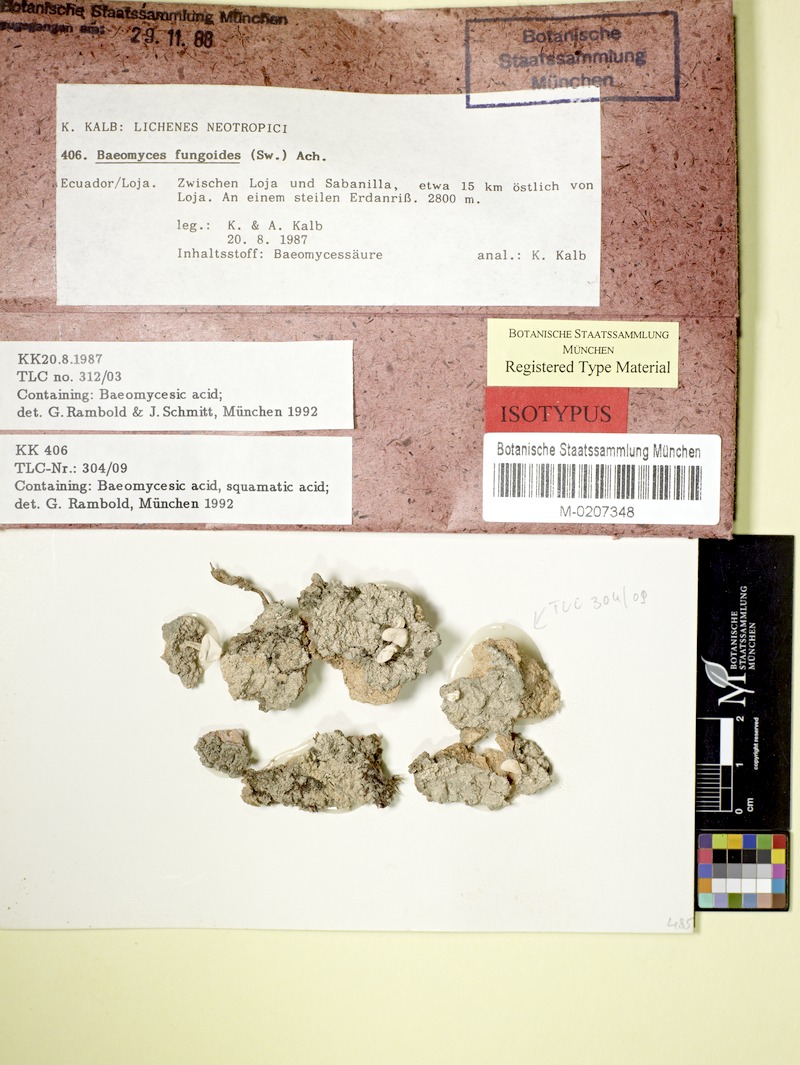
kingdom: Fungi
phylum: Ascomycota
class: Lecanoromycetes
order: Pertusariales
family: Icmadophilaceae
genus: Dibaeis
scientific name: Dibaeis umbrelliformis
